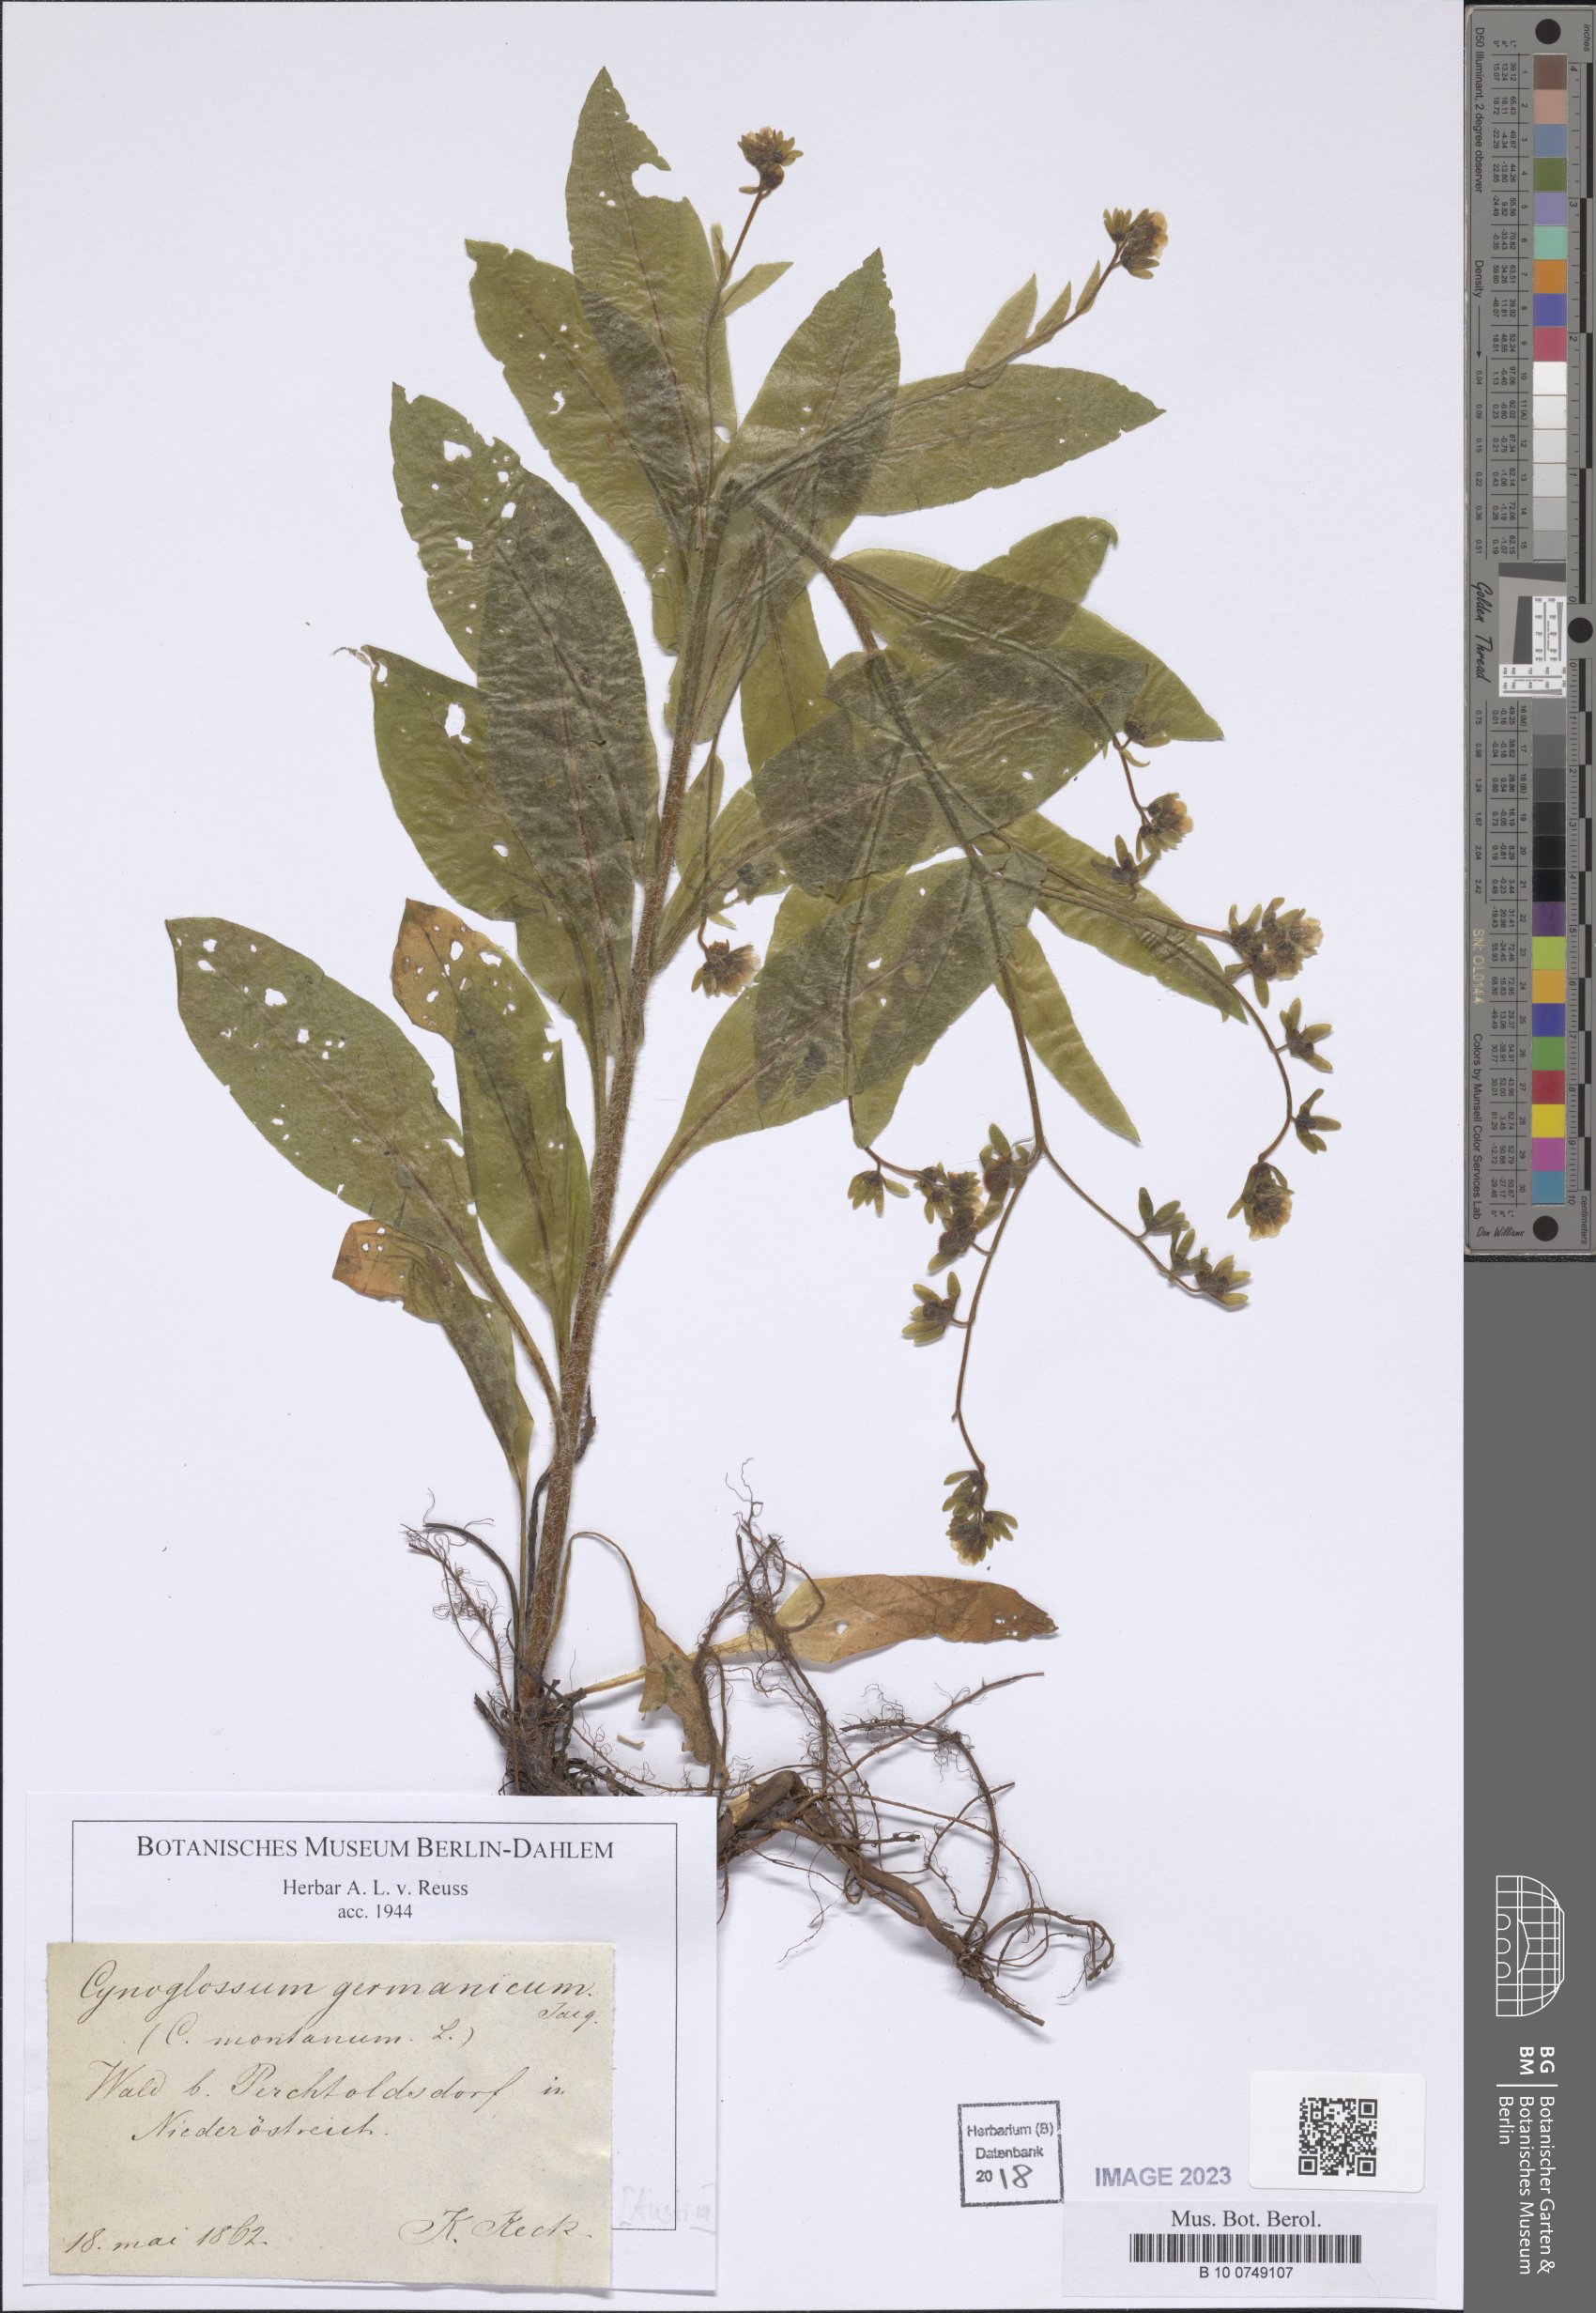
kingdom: Plantae
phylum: Tracheophyta
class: Magnoliopsida
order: Boraginales
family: Boraginaceae
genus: Cynoglossum
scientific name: Cynoglossum germanicum
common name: Green hound's-tongue
